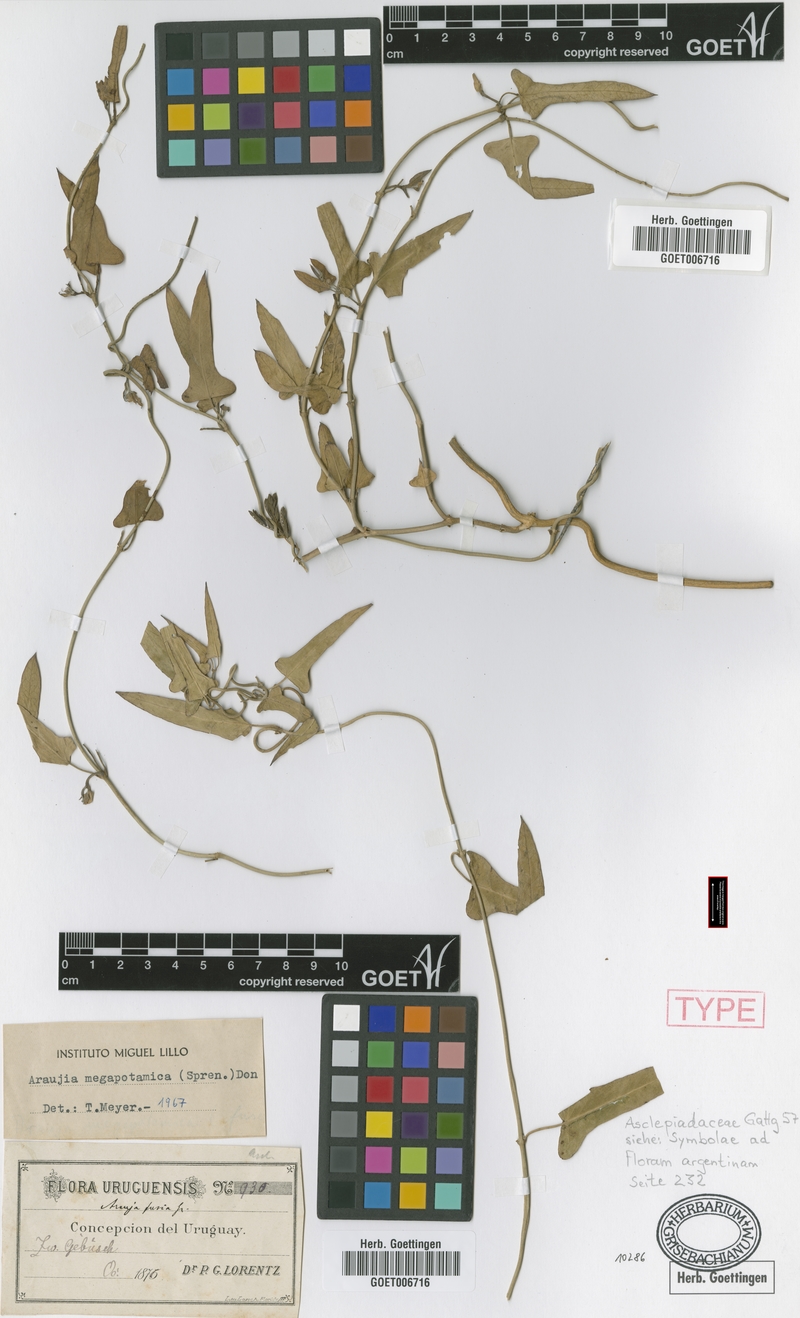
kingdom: Plantae
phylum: Tracheophyta
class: Magnoliopsida
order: Gentianales
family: Apocynaceae
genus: Araujia
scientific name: Araujia megapotamica
